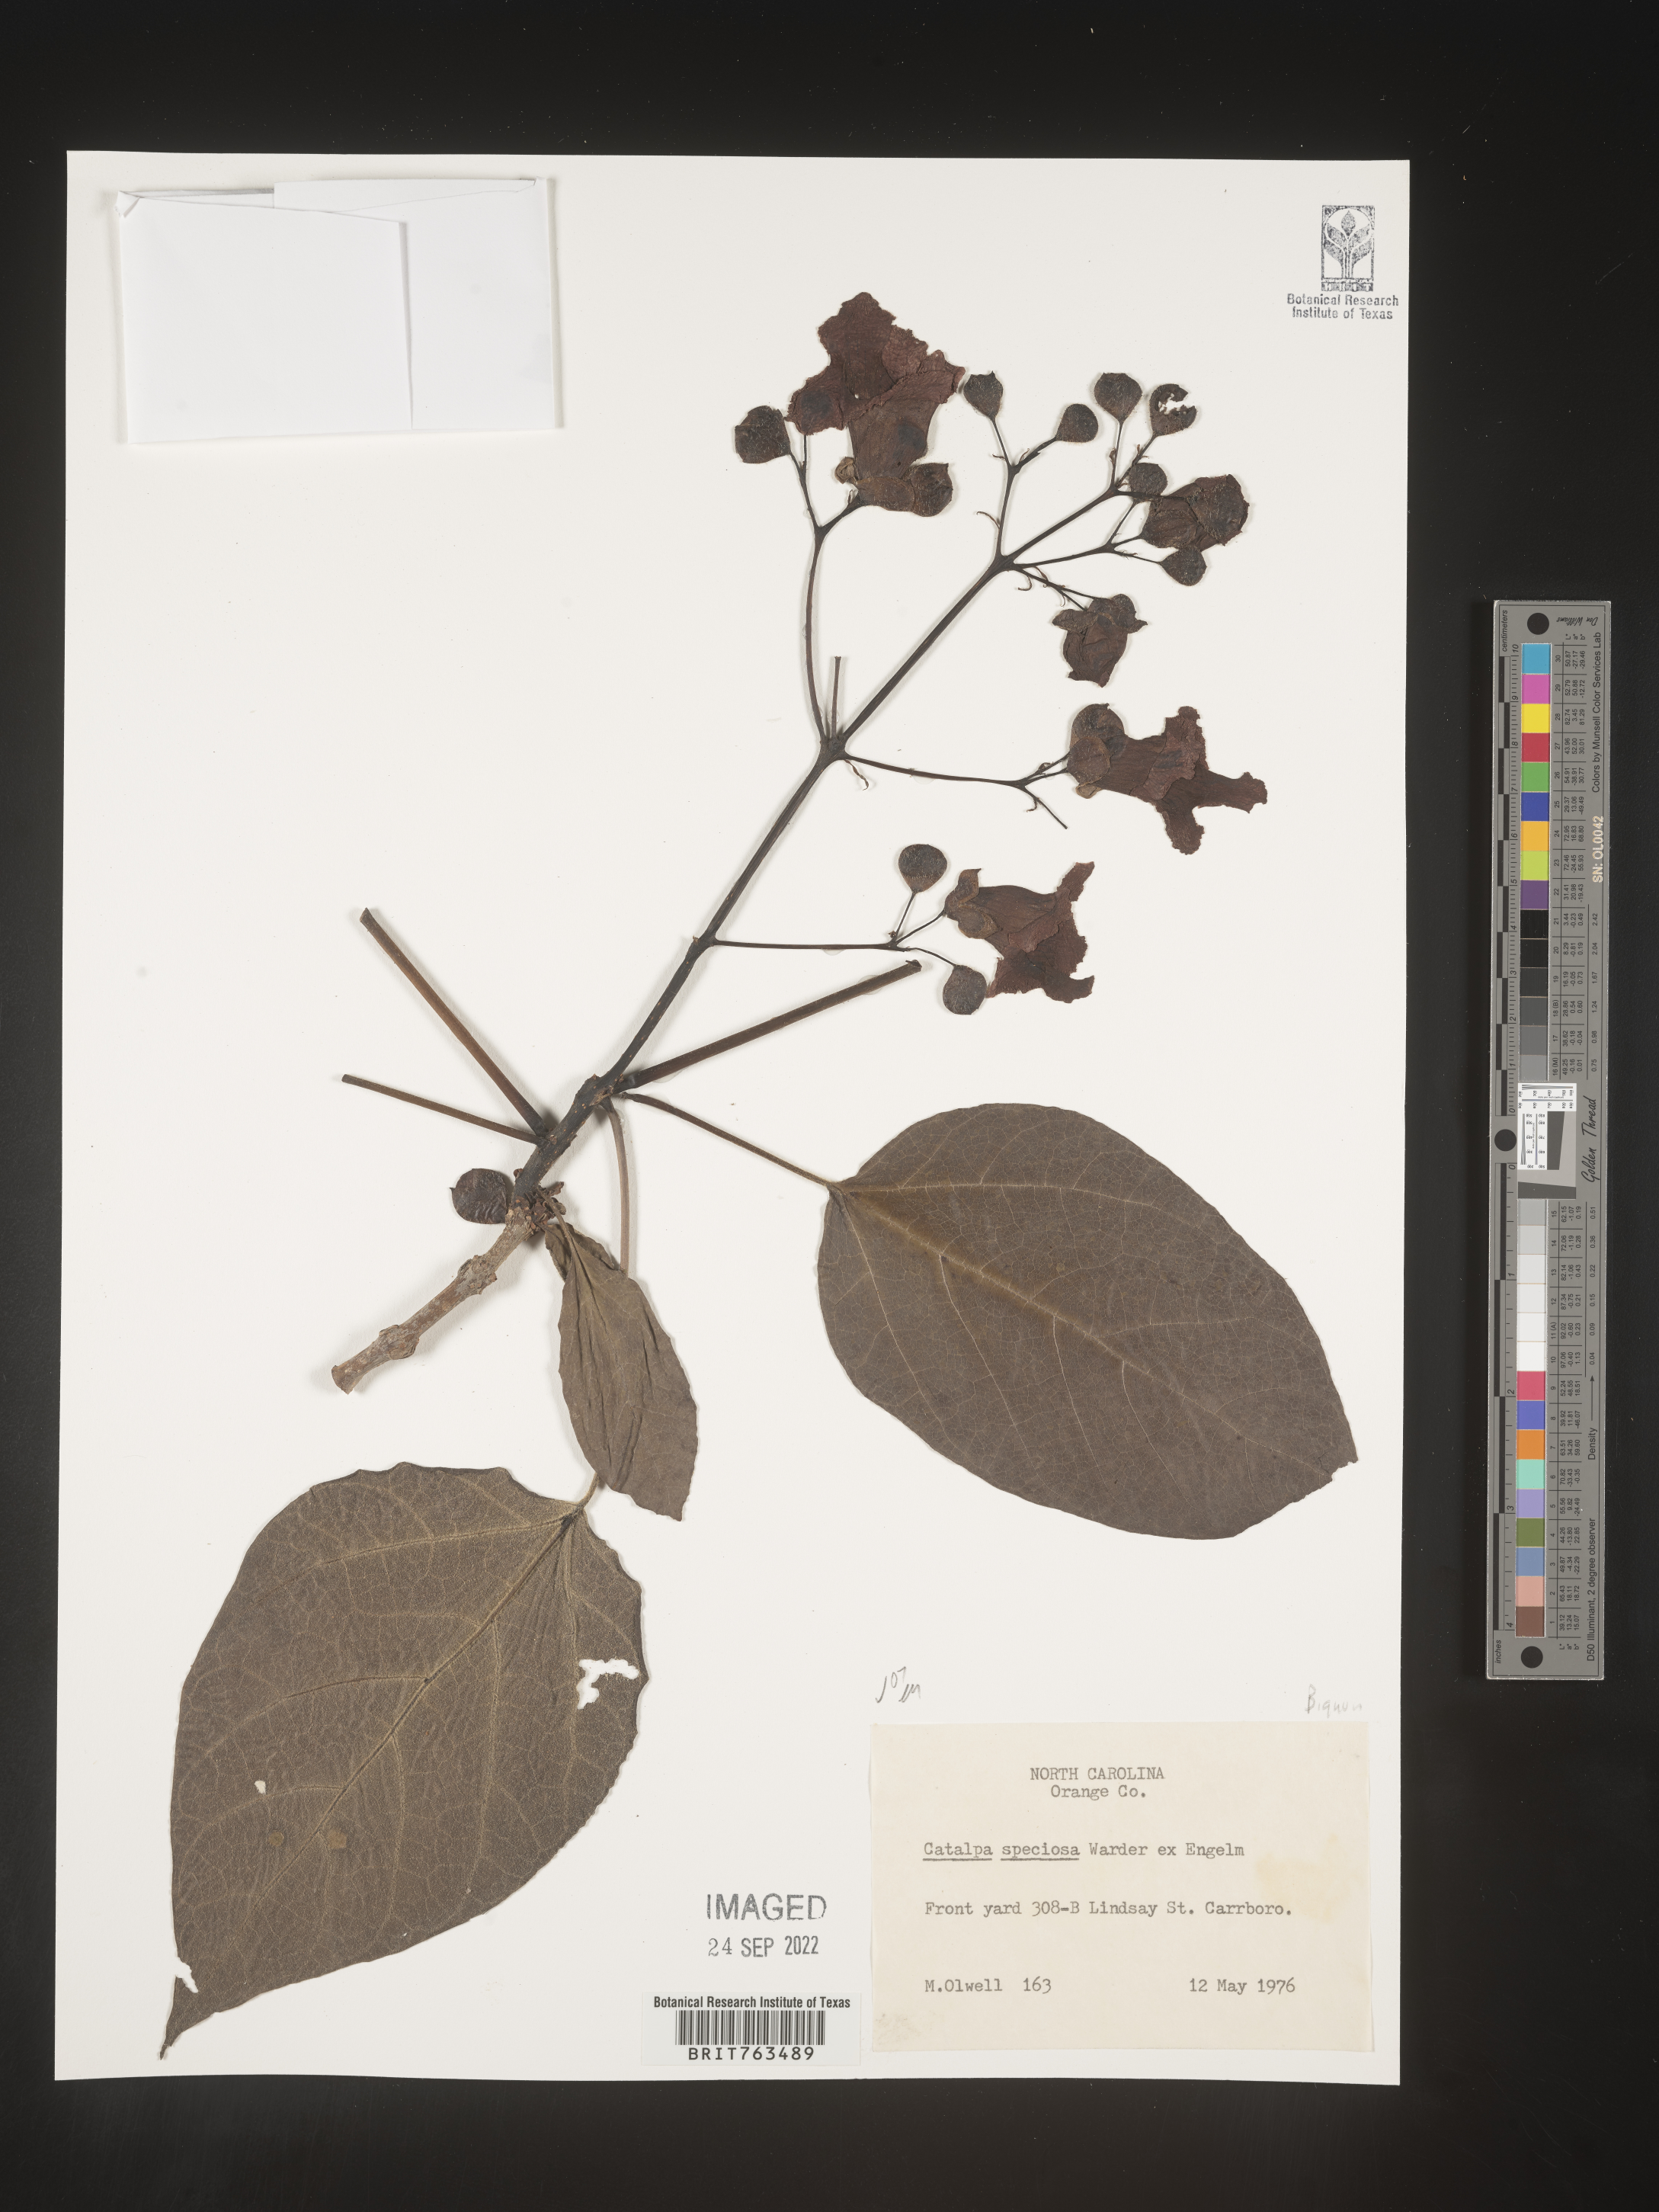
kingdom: Plantae
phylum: Tracheophyta
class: Magnoliopsida
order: Lamiales
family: Bignoniaceae
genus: Catalpa
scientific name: Catalpa speciosa
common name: Northern catalpa
